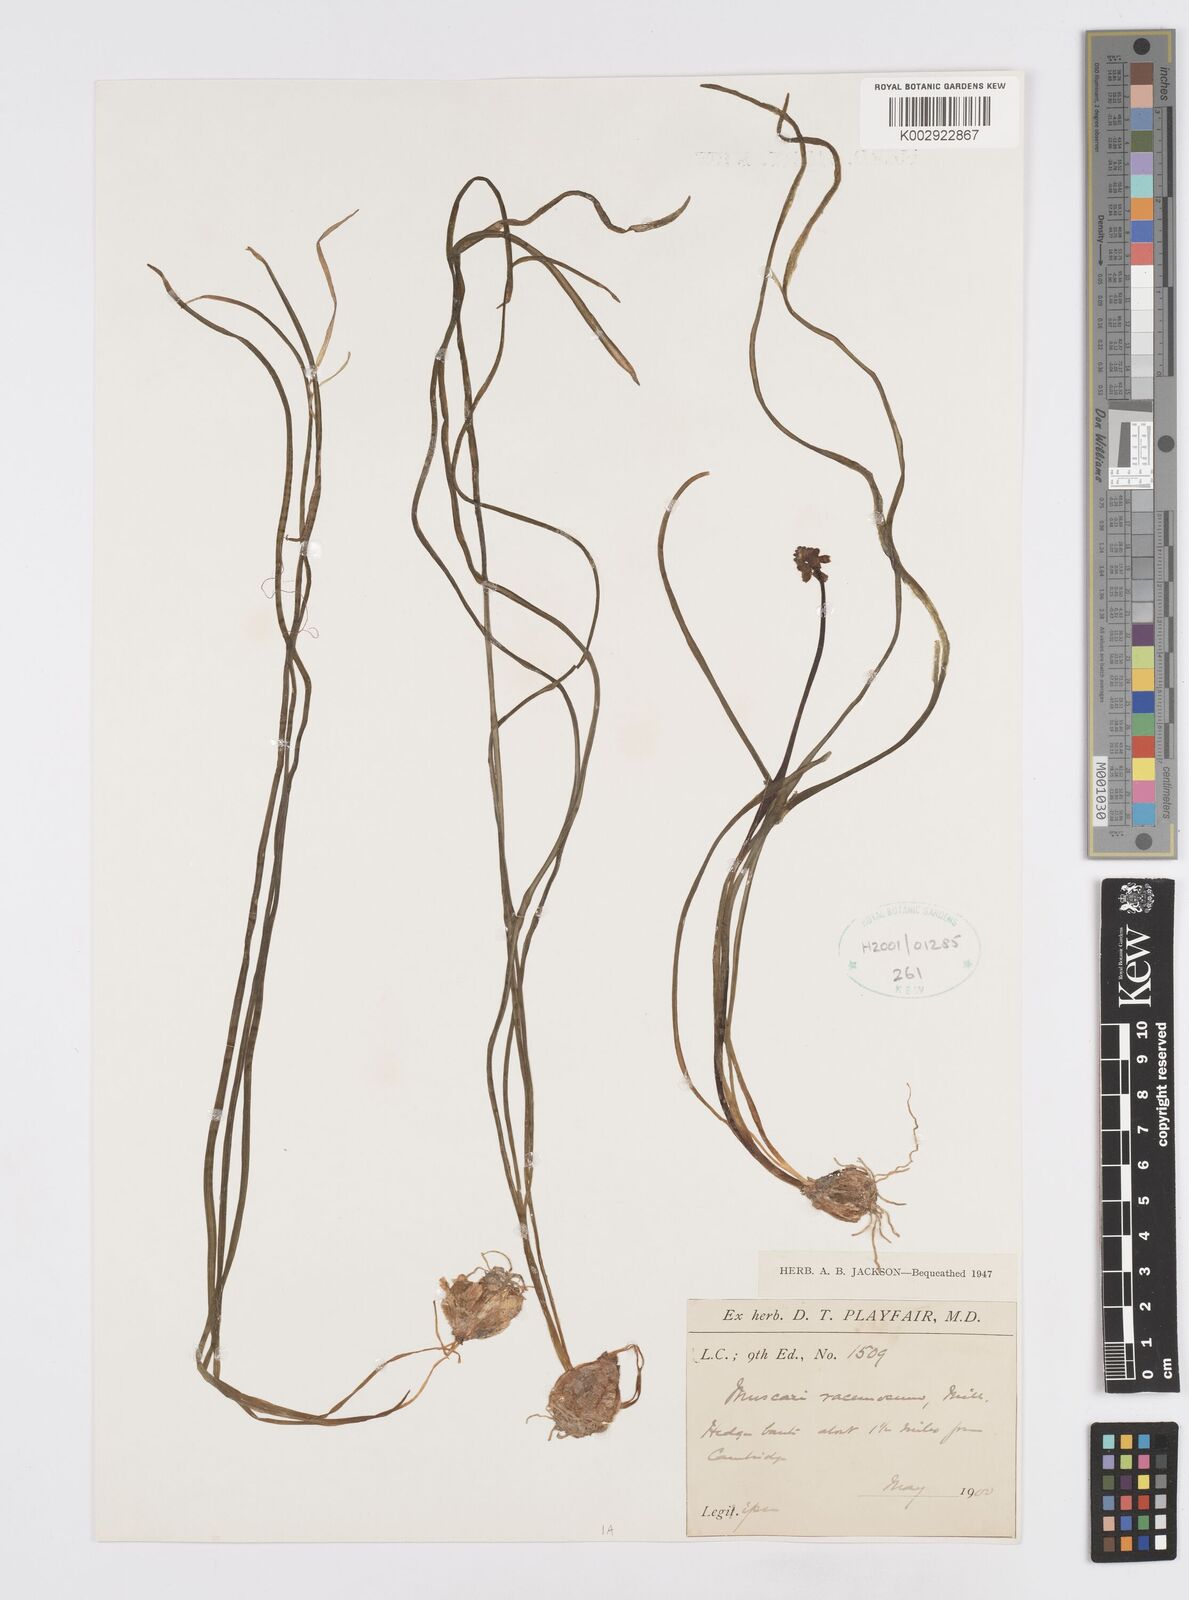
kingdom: Plantae
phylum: Tracheophyta
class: Liliopsida
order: Asparagales
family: Asparagaceae
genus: Muscari
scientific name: Muscari neglectum
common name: Grape-hyacinth
